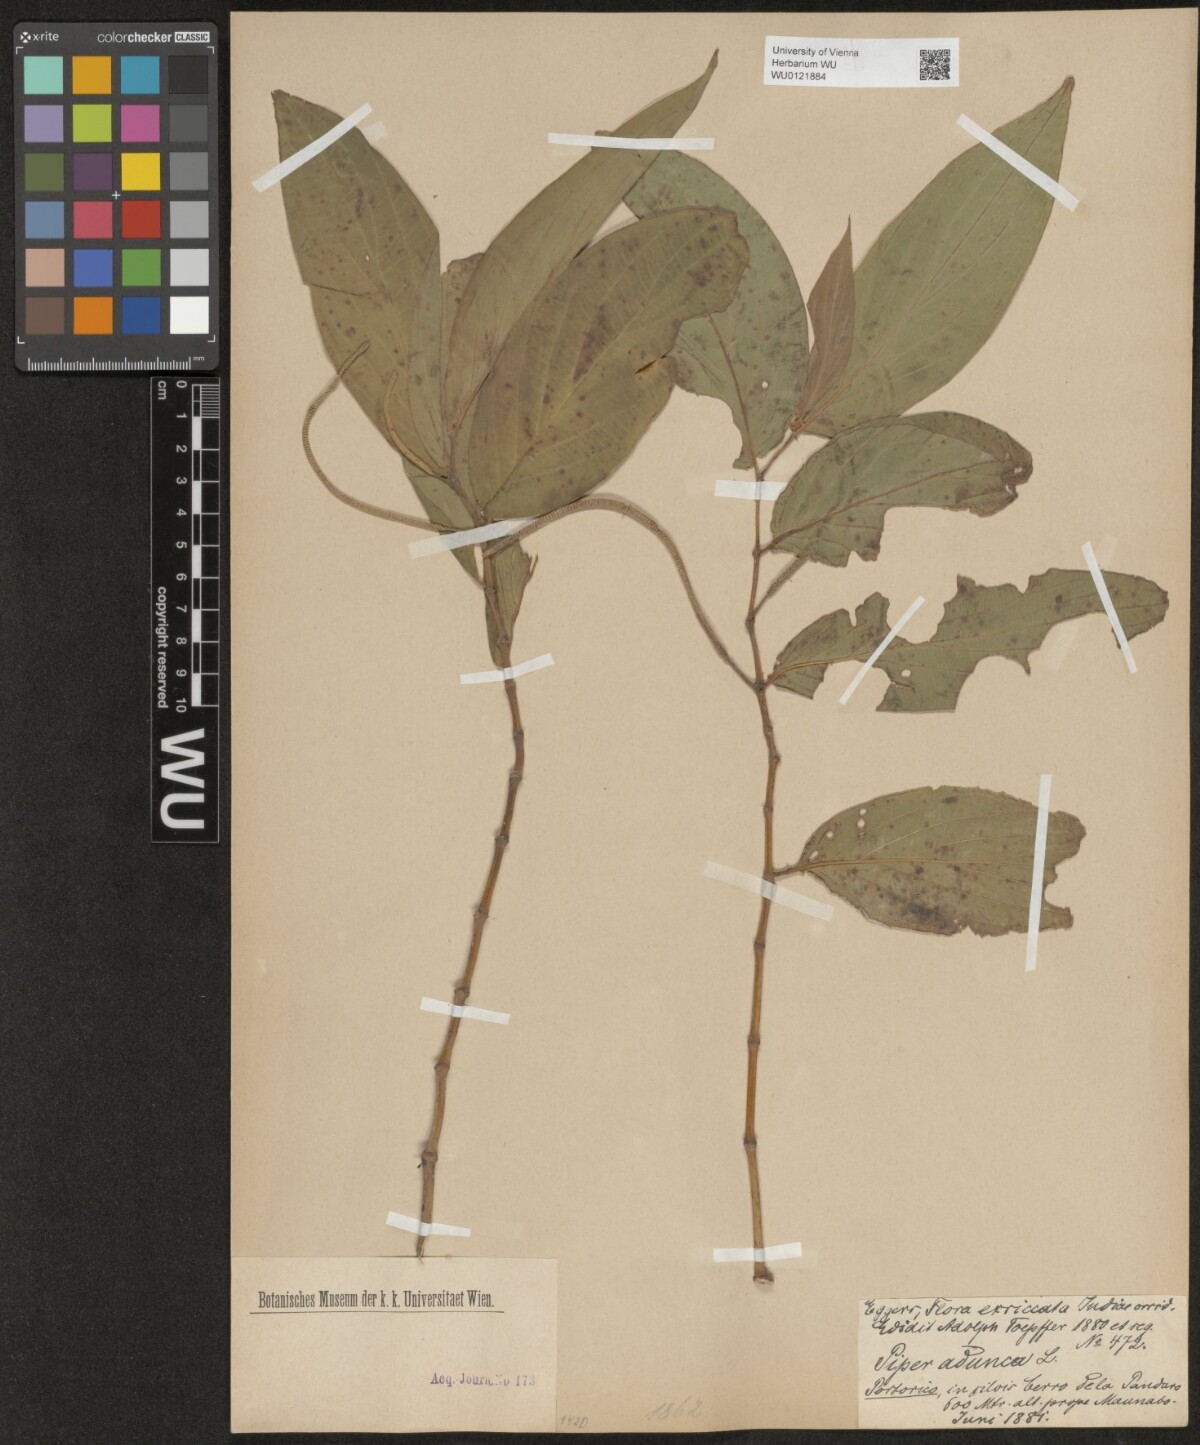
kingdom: Plantae
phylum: Tracheophyta
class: Magnoliopsida
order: Piperales
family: Piperaceae
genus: Piper
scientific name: Piper aduncum
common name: Spiked pepper
